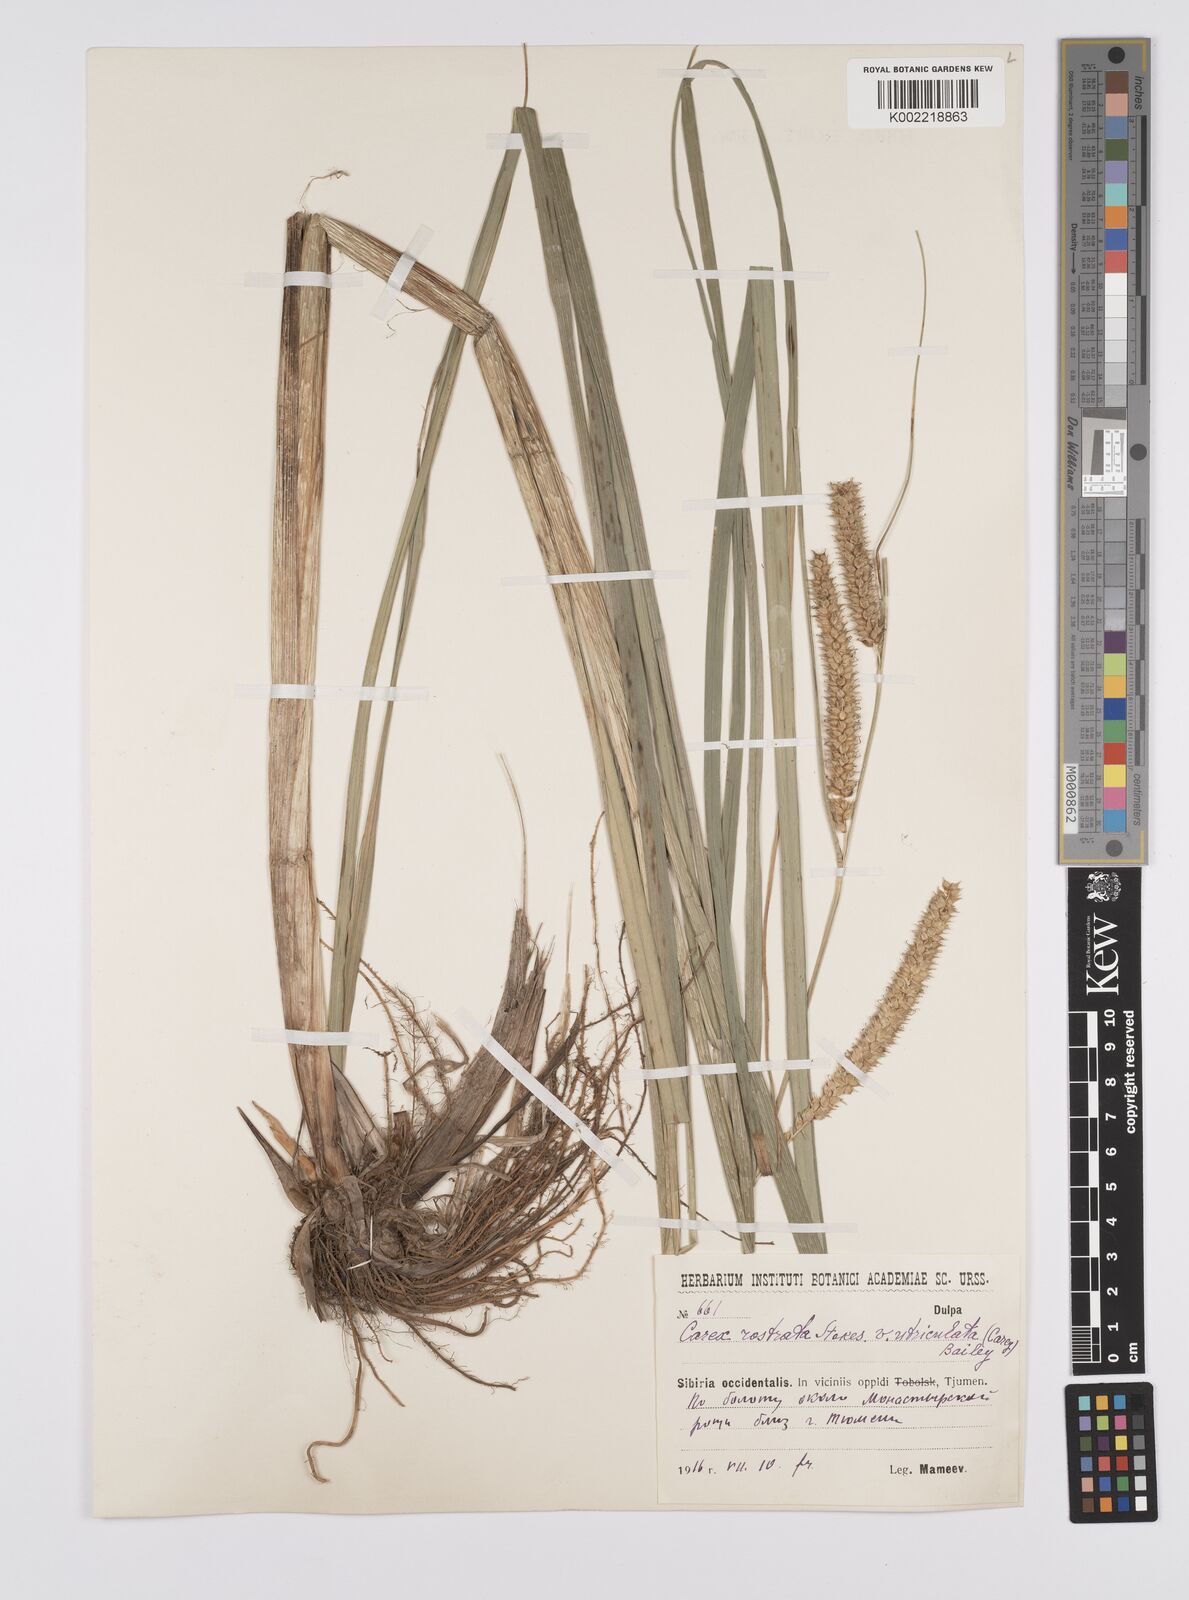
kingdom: Plantae
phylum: Tracheophyta
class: Liliopsida
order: Poales
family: Cyperaceae
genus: Carex
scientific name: Carex lurida
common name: Sallow sedge
